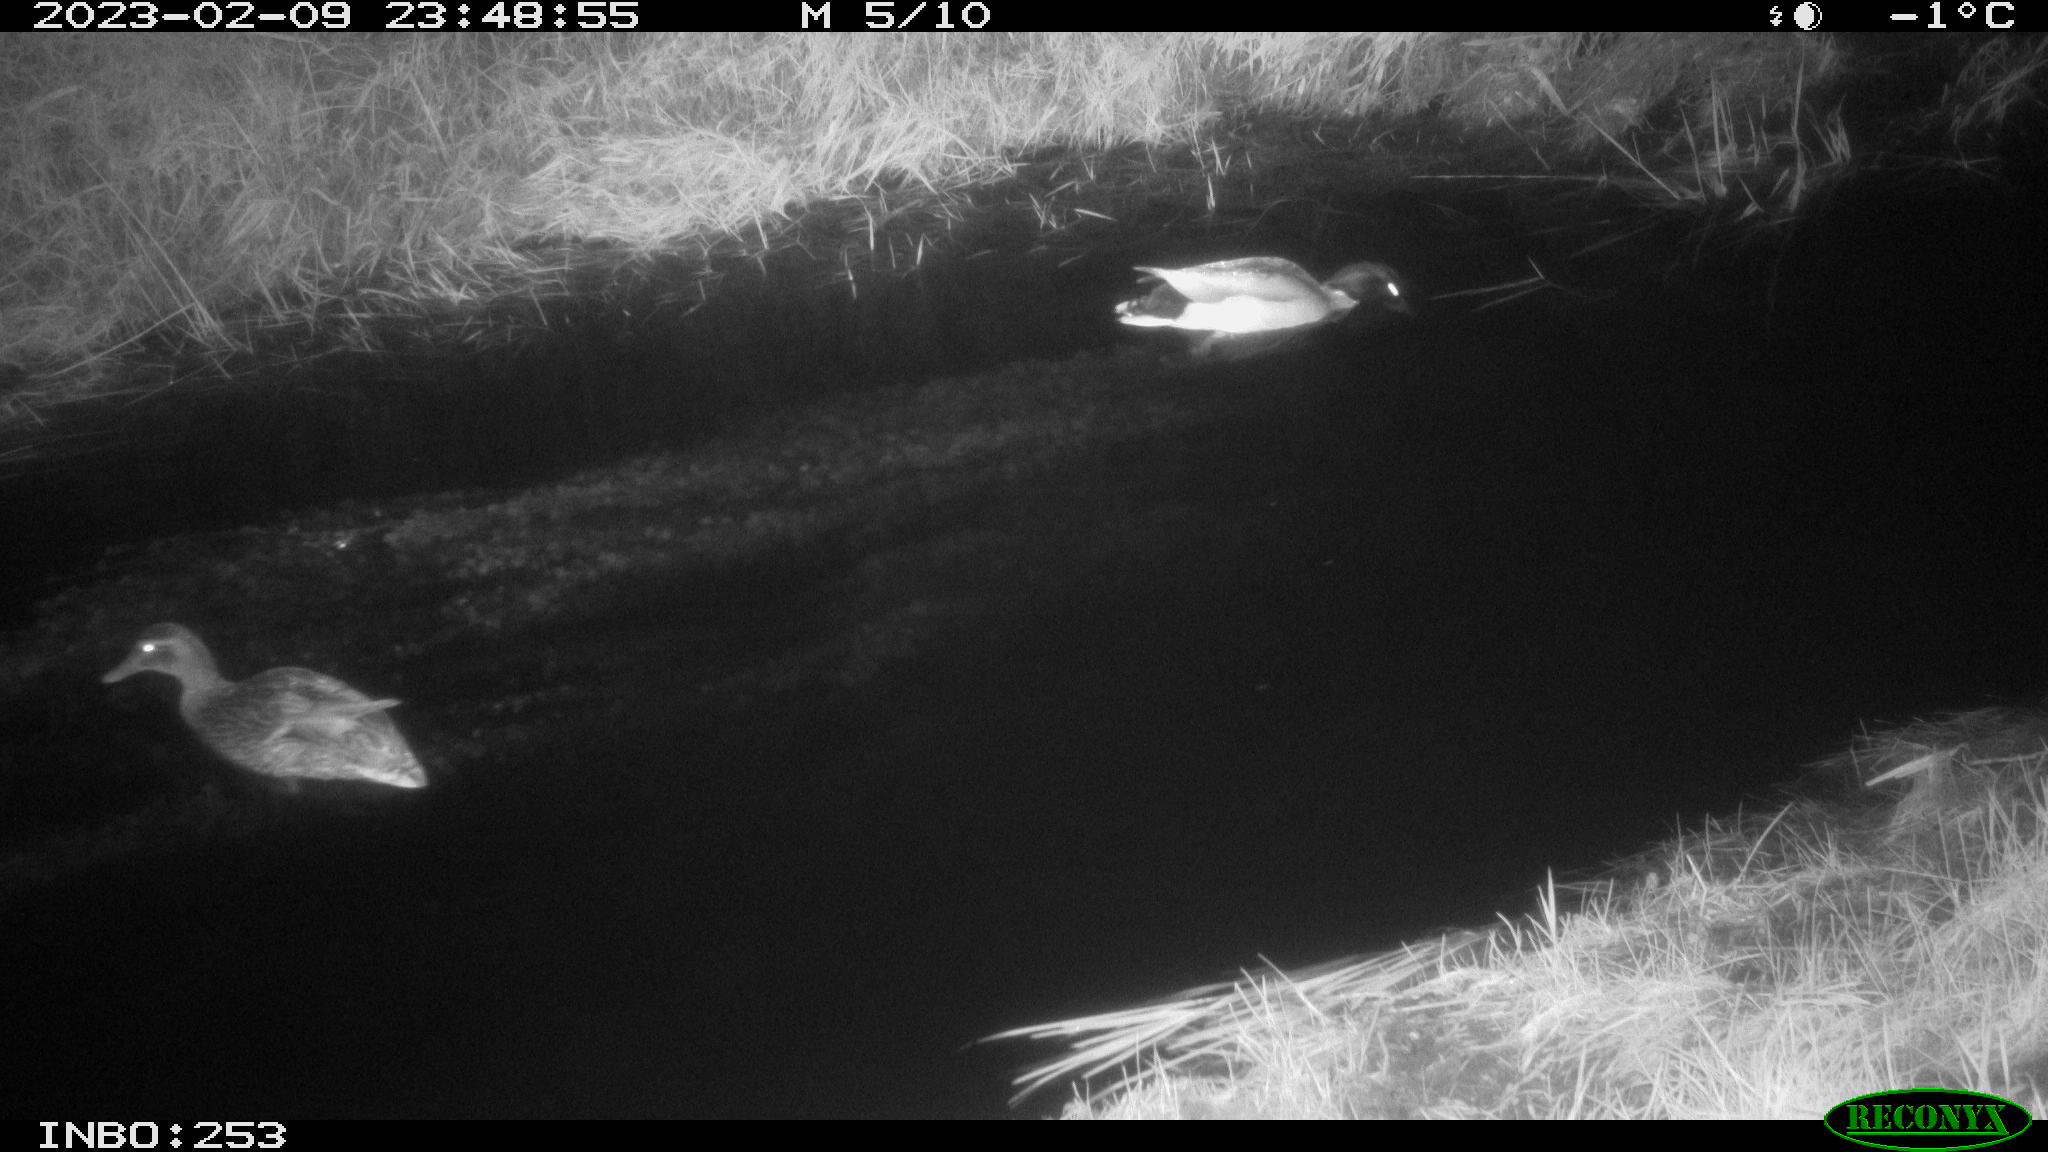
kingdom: Animalia
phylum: Chordata
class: Aves
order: Anseriformes
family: Anatidae
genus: Anas
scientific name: Anas
